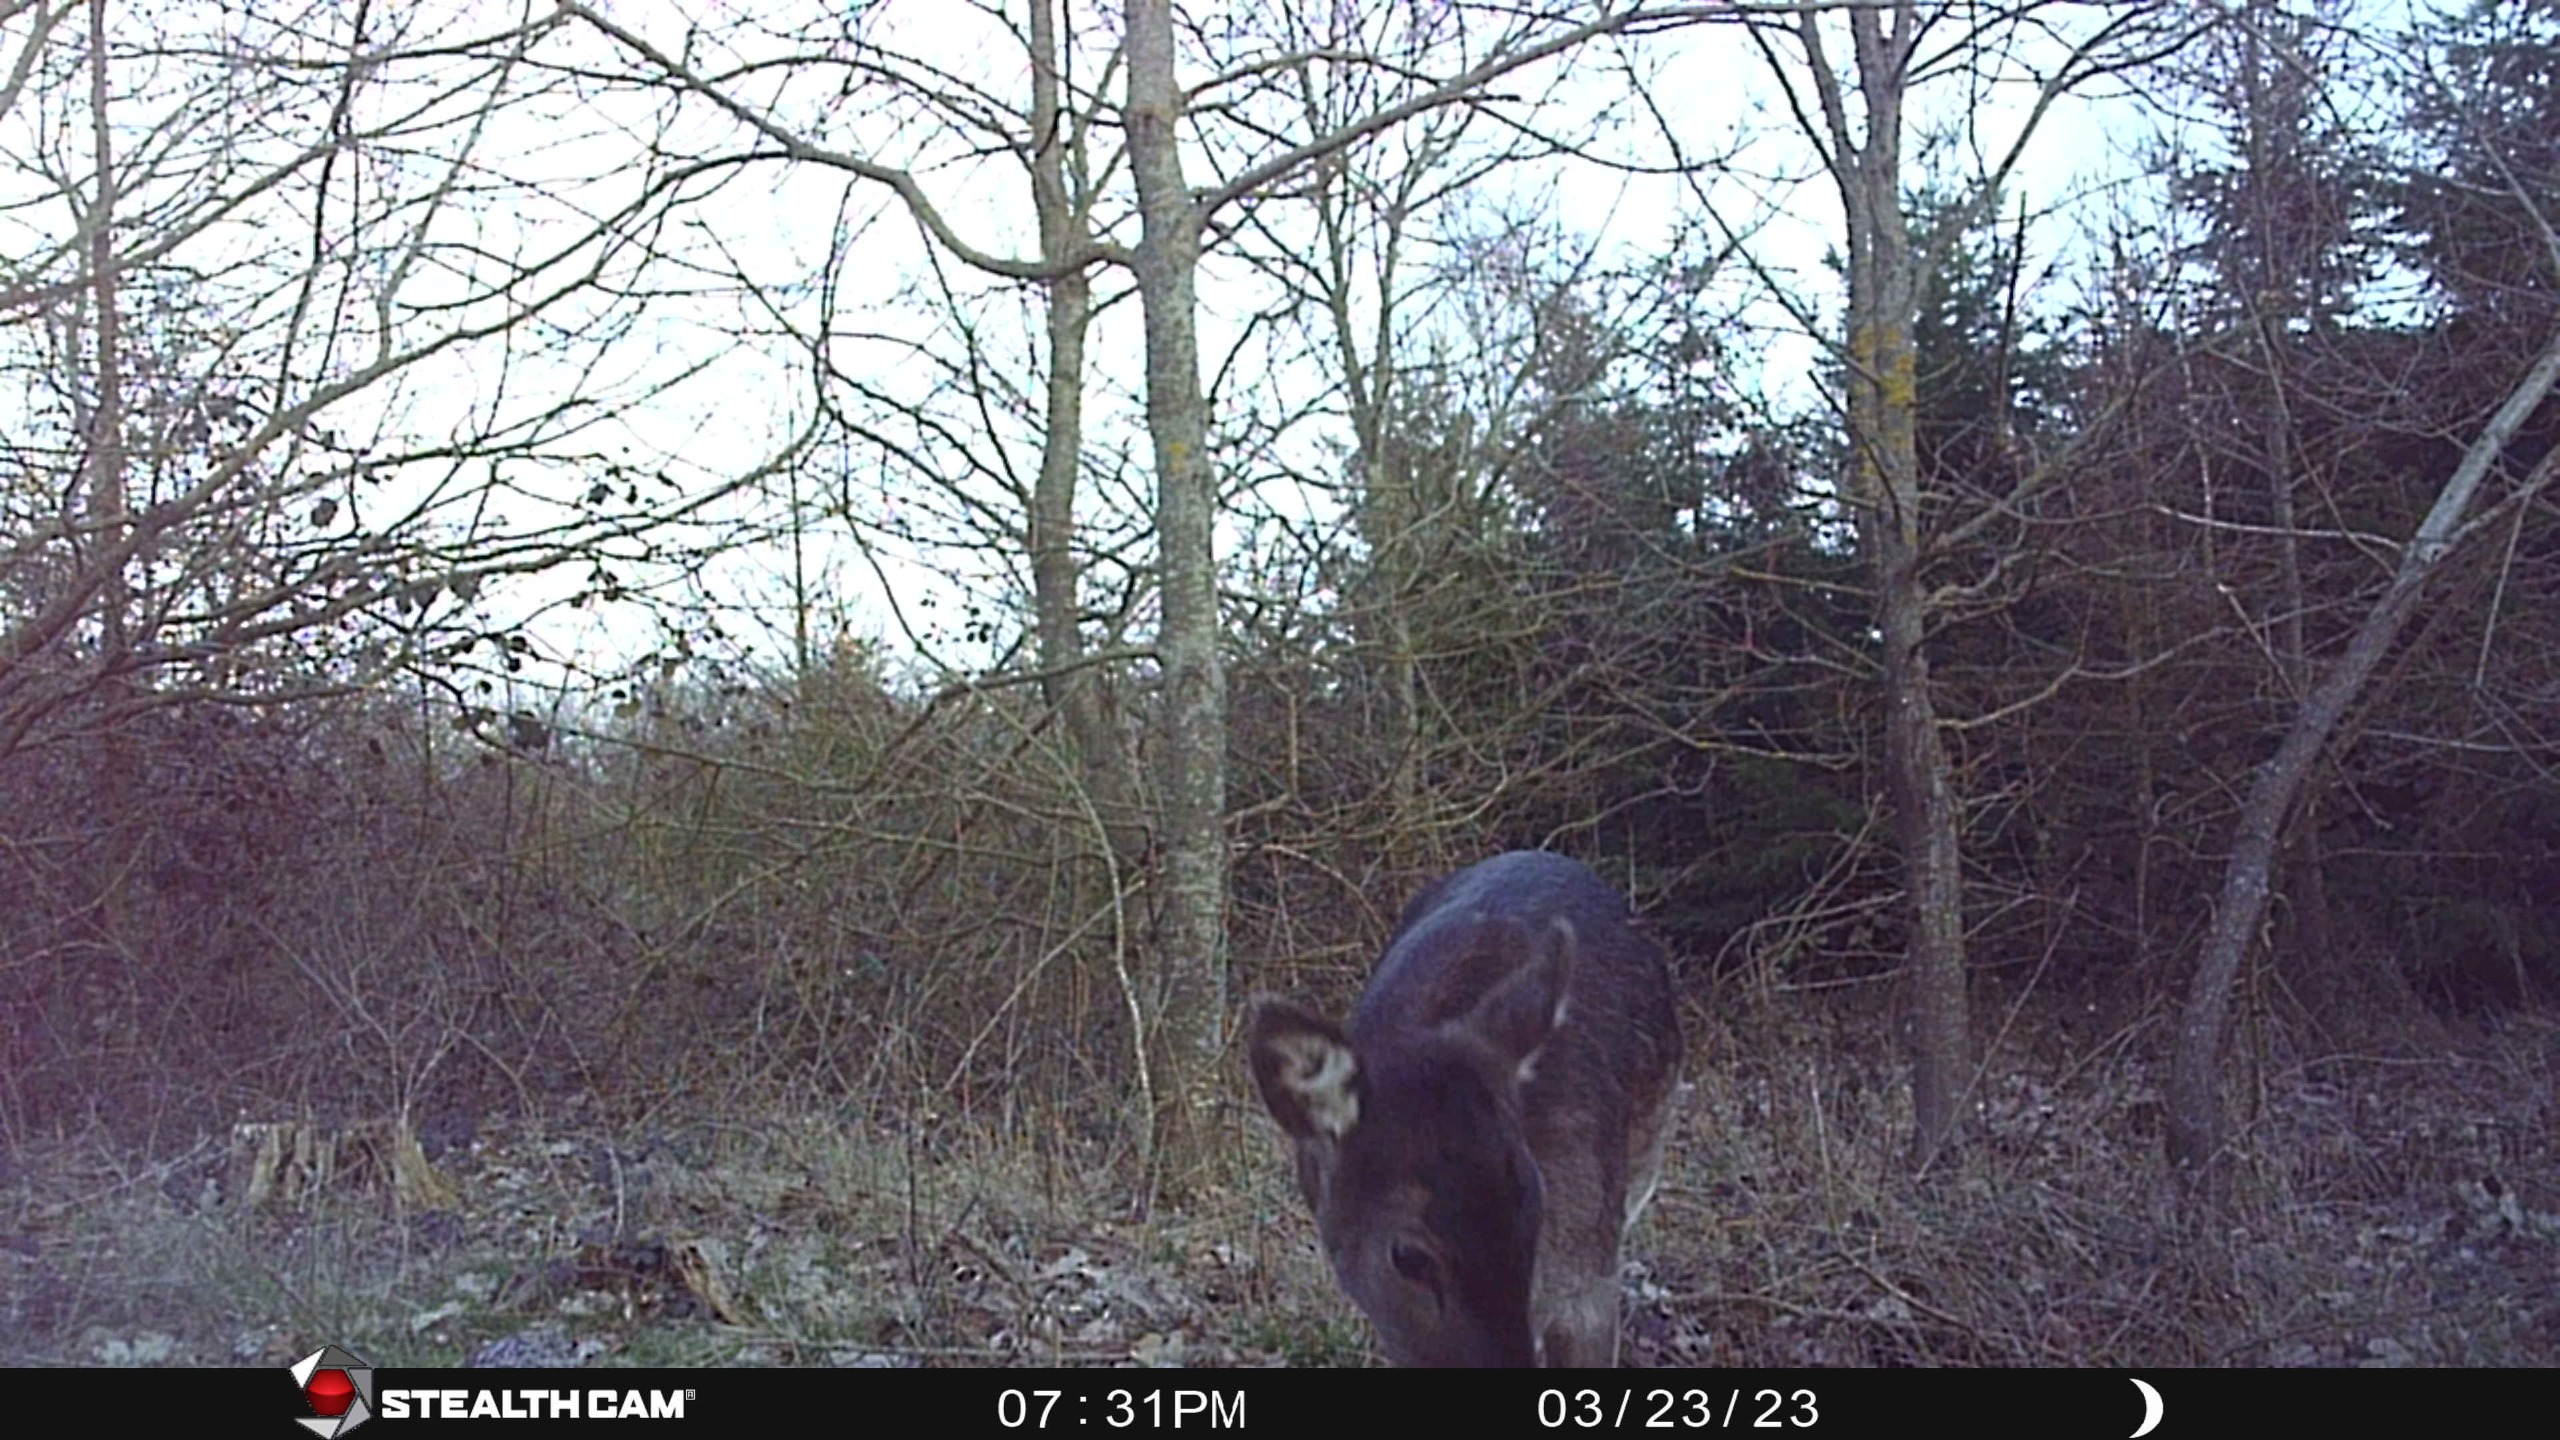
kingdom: Animalia
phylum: Chordata
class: Mammalia
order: Artiodactyla
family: Cervidae
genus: Dama
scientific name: Dama dama
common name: Dådyr
